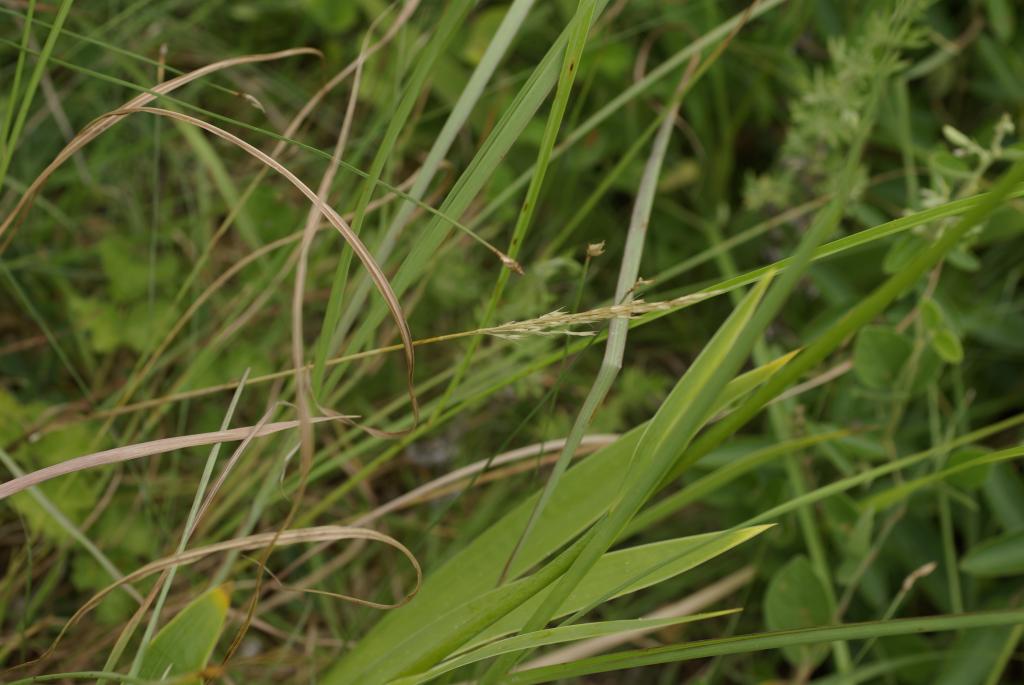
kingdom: Plantae
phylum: Tracheophyta
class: Liliopsida
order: Poales
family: Poaceae
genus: Chrysopogon
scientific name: Chrysopogon aciculatus
